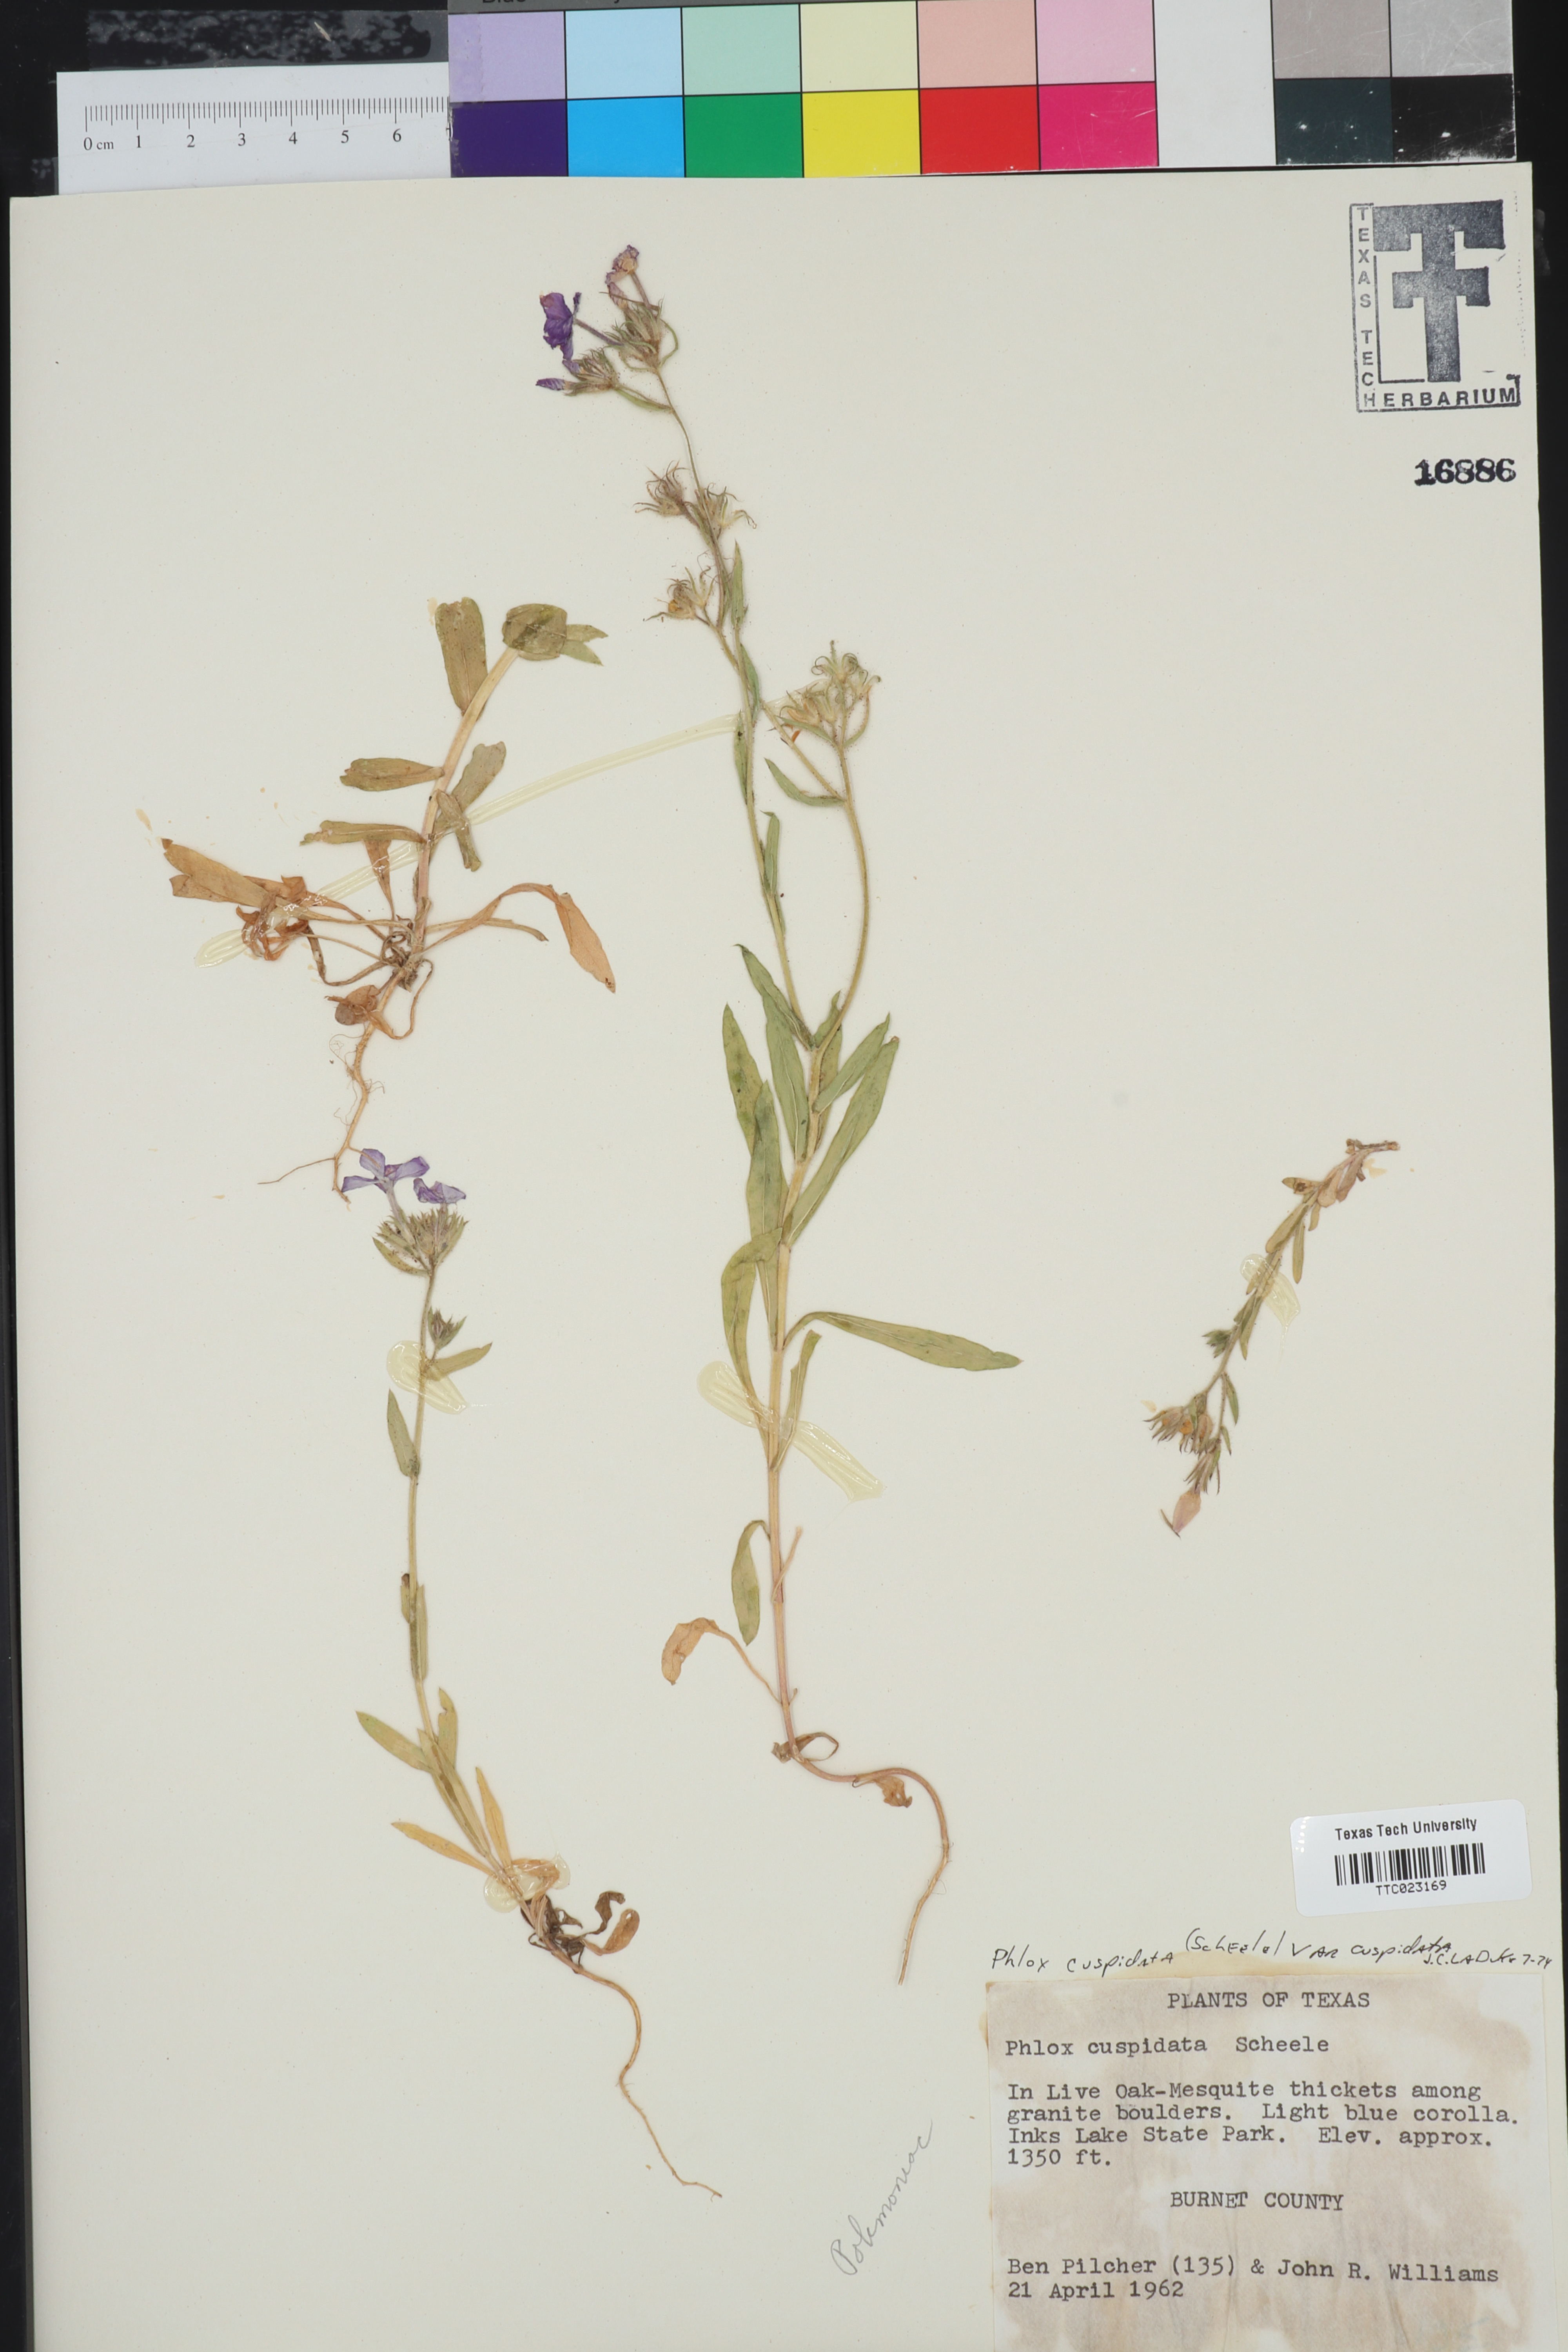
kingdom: Plantae
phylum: Tracheophyta
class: Magnoliopsida
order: Ericales
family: Polemoniaceae
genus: Phlox
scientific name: Phlox cuspidata
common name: Pointed phlox
